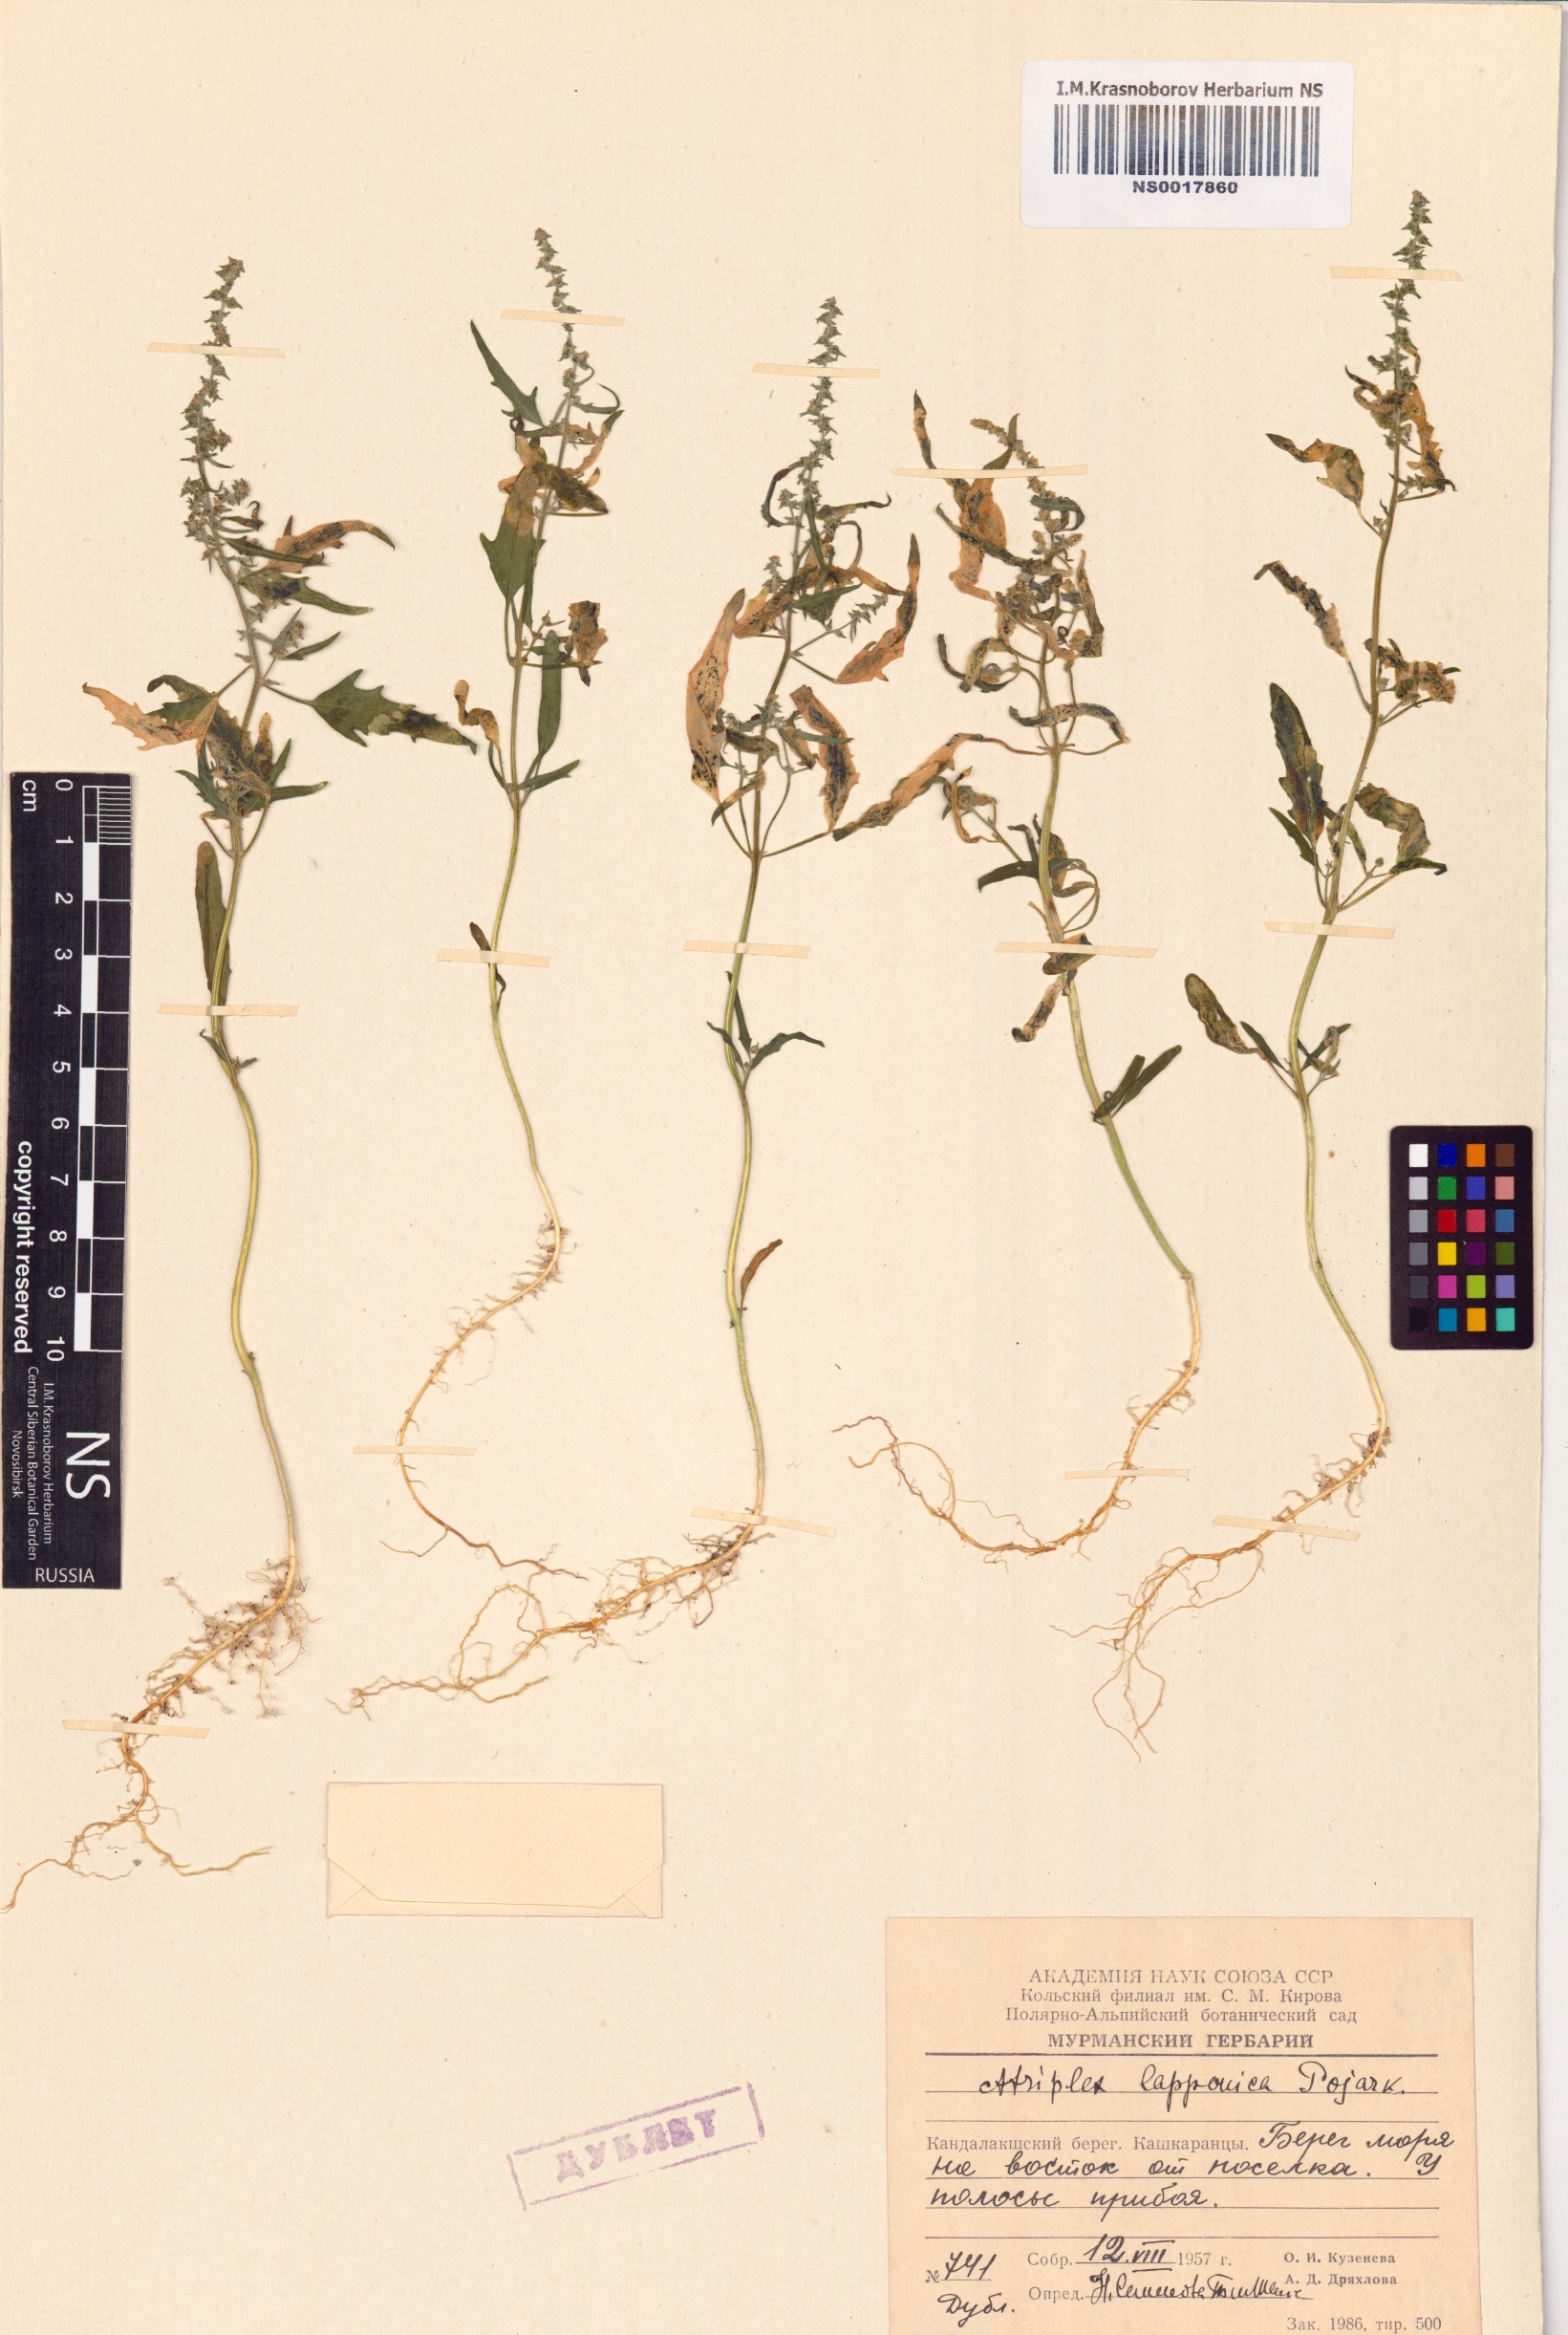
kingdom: Plantae
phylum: Tracheophyta
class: Magnoliopsida
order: Caryophyllales
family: Amaranthaceae
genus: Atriplex
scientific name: Atriplex nudicaulis
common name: Baltic orache
